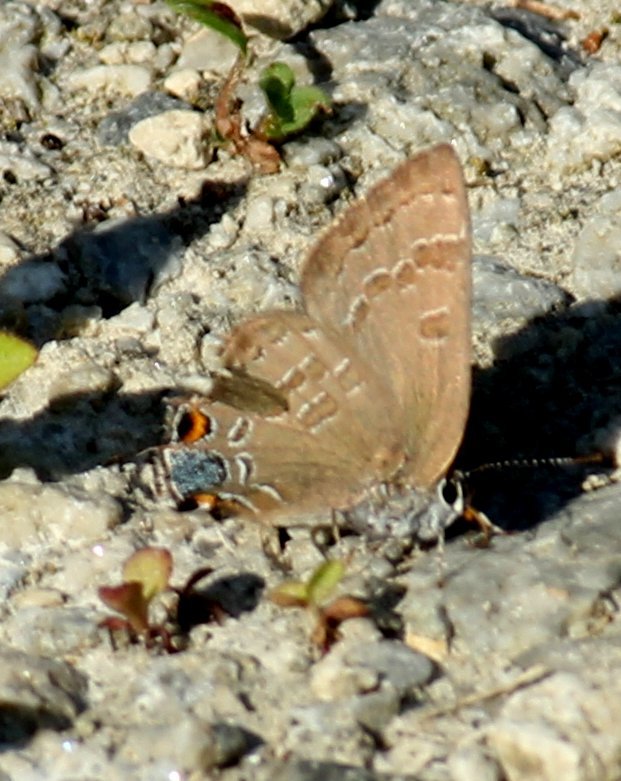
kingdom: Animalia
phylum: Arthropoda
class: Insecta
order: Lepidoptera
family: Lycaenidae
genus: Strymon
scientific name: Strymon caryaevorus
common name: Hickory Hairstreak
